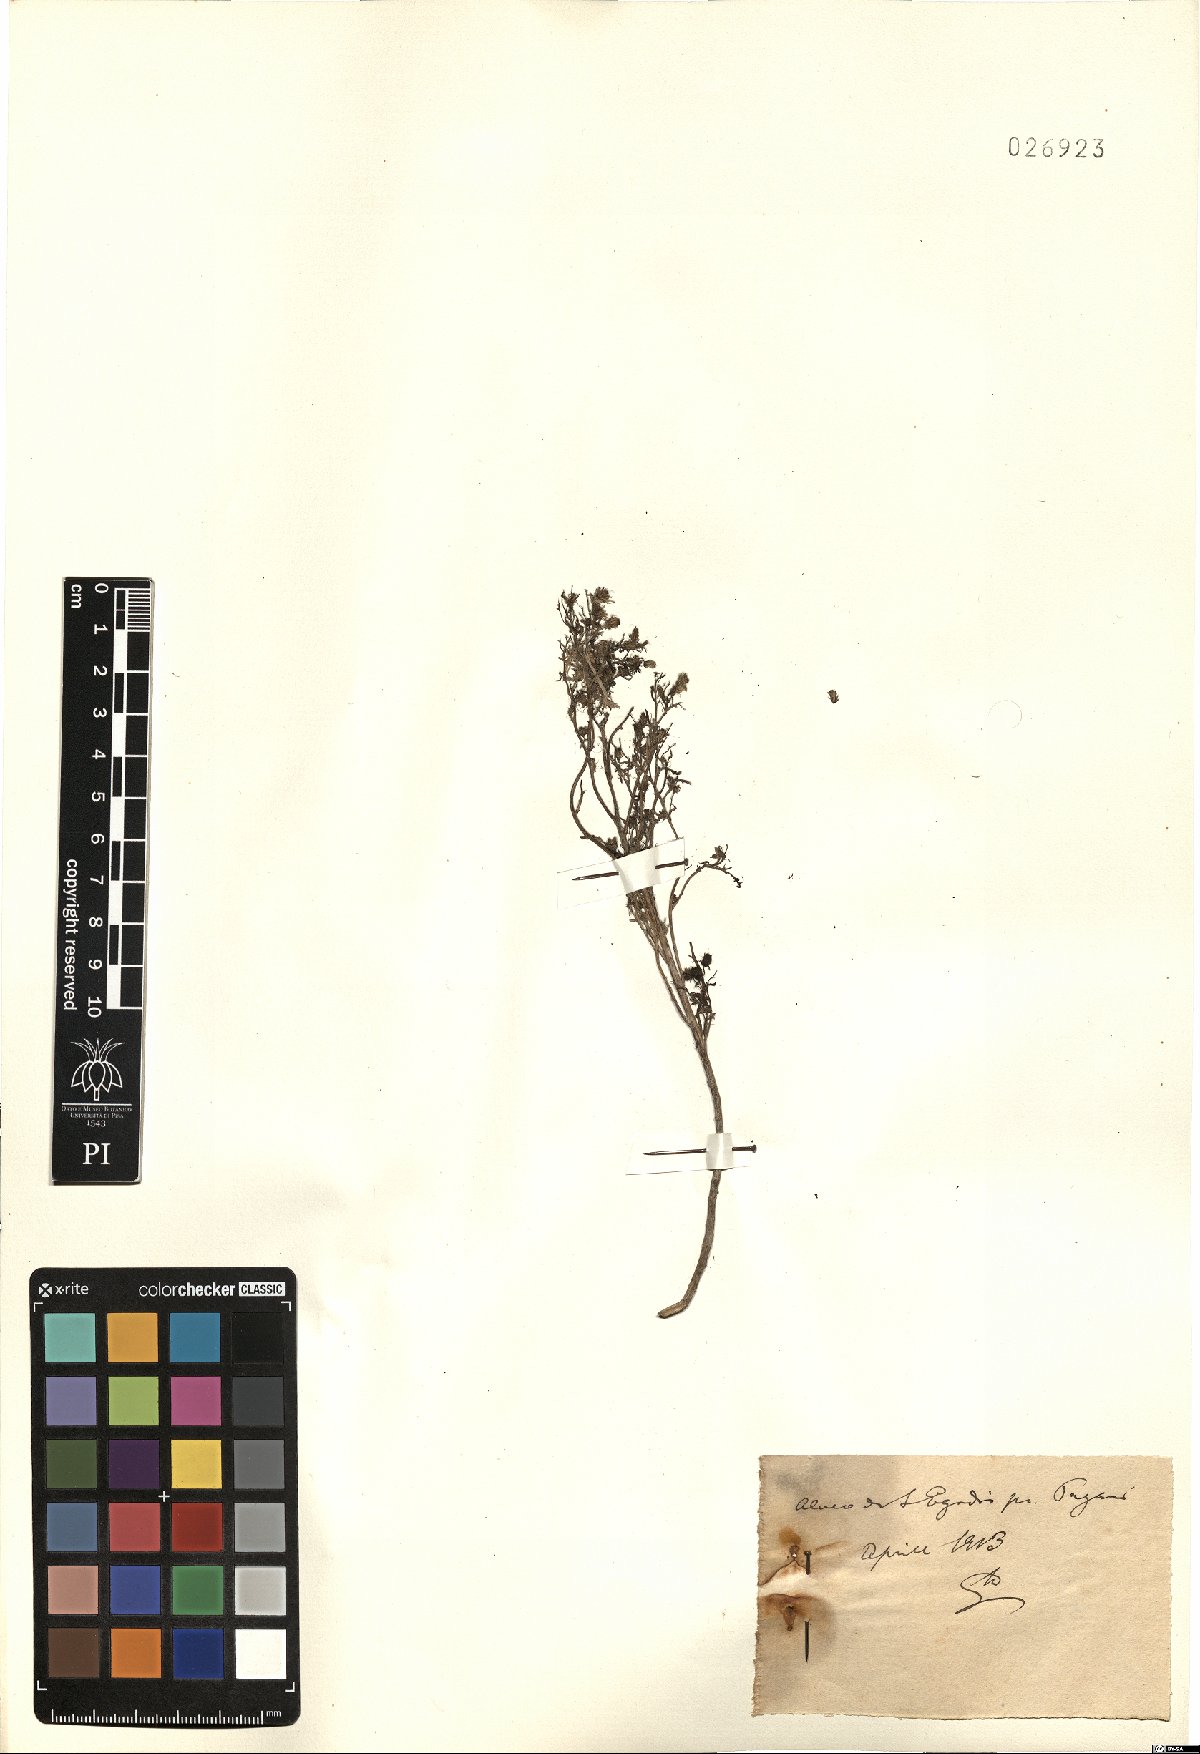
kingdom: Plantae
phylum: Tracheophyta
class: Magnoliopsida
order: Asterales
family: Asteraceae
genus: Erigeron
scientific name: Erigeron
